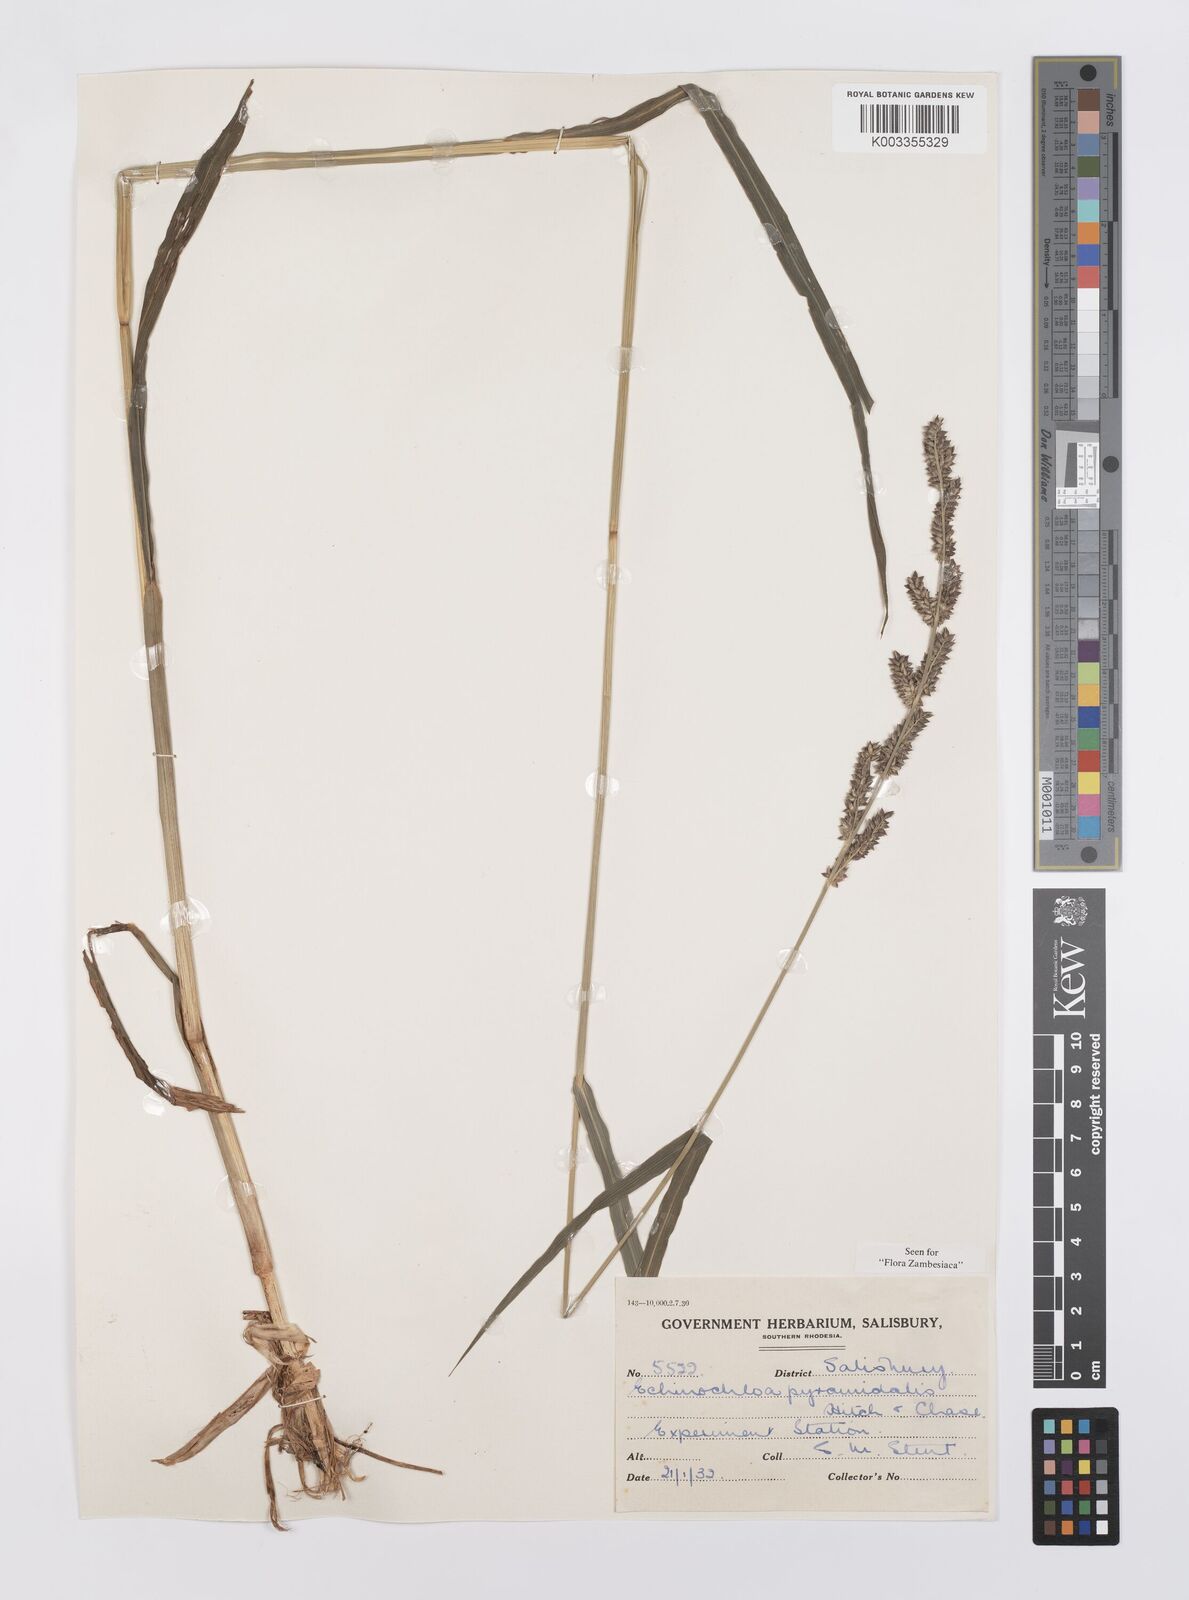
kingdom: Plantae
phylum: Tracheophyta
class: Liliopsida
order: Poales
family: Poaceae
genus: Echinochloa
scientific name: Echinochloa pyramidalis
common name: Antelope grass
